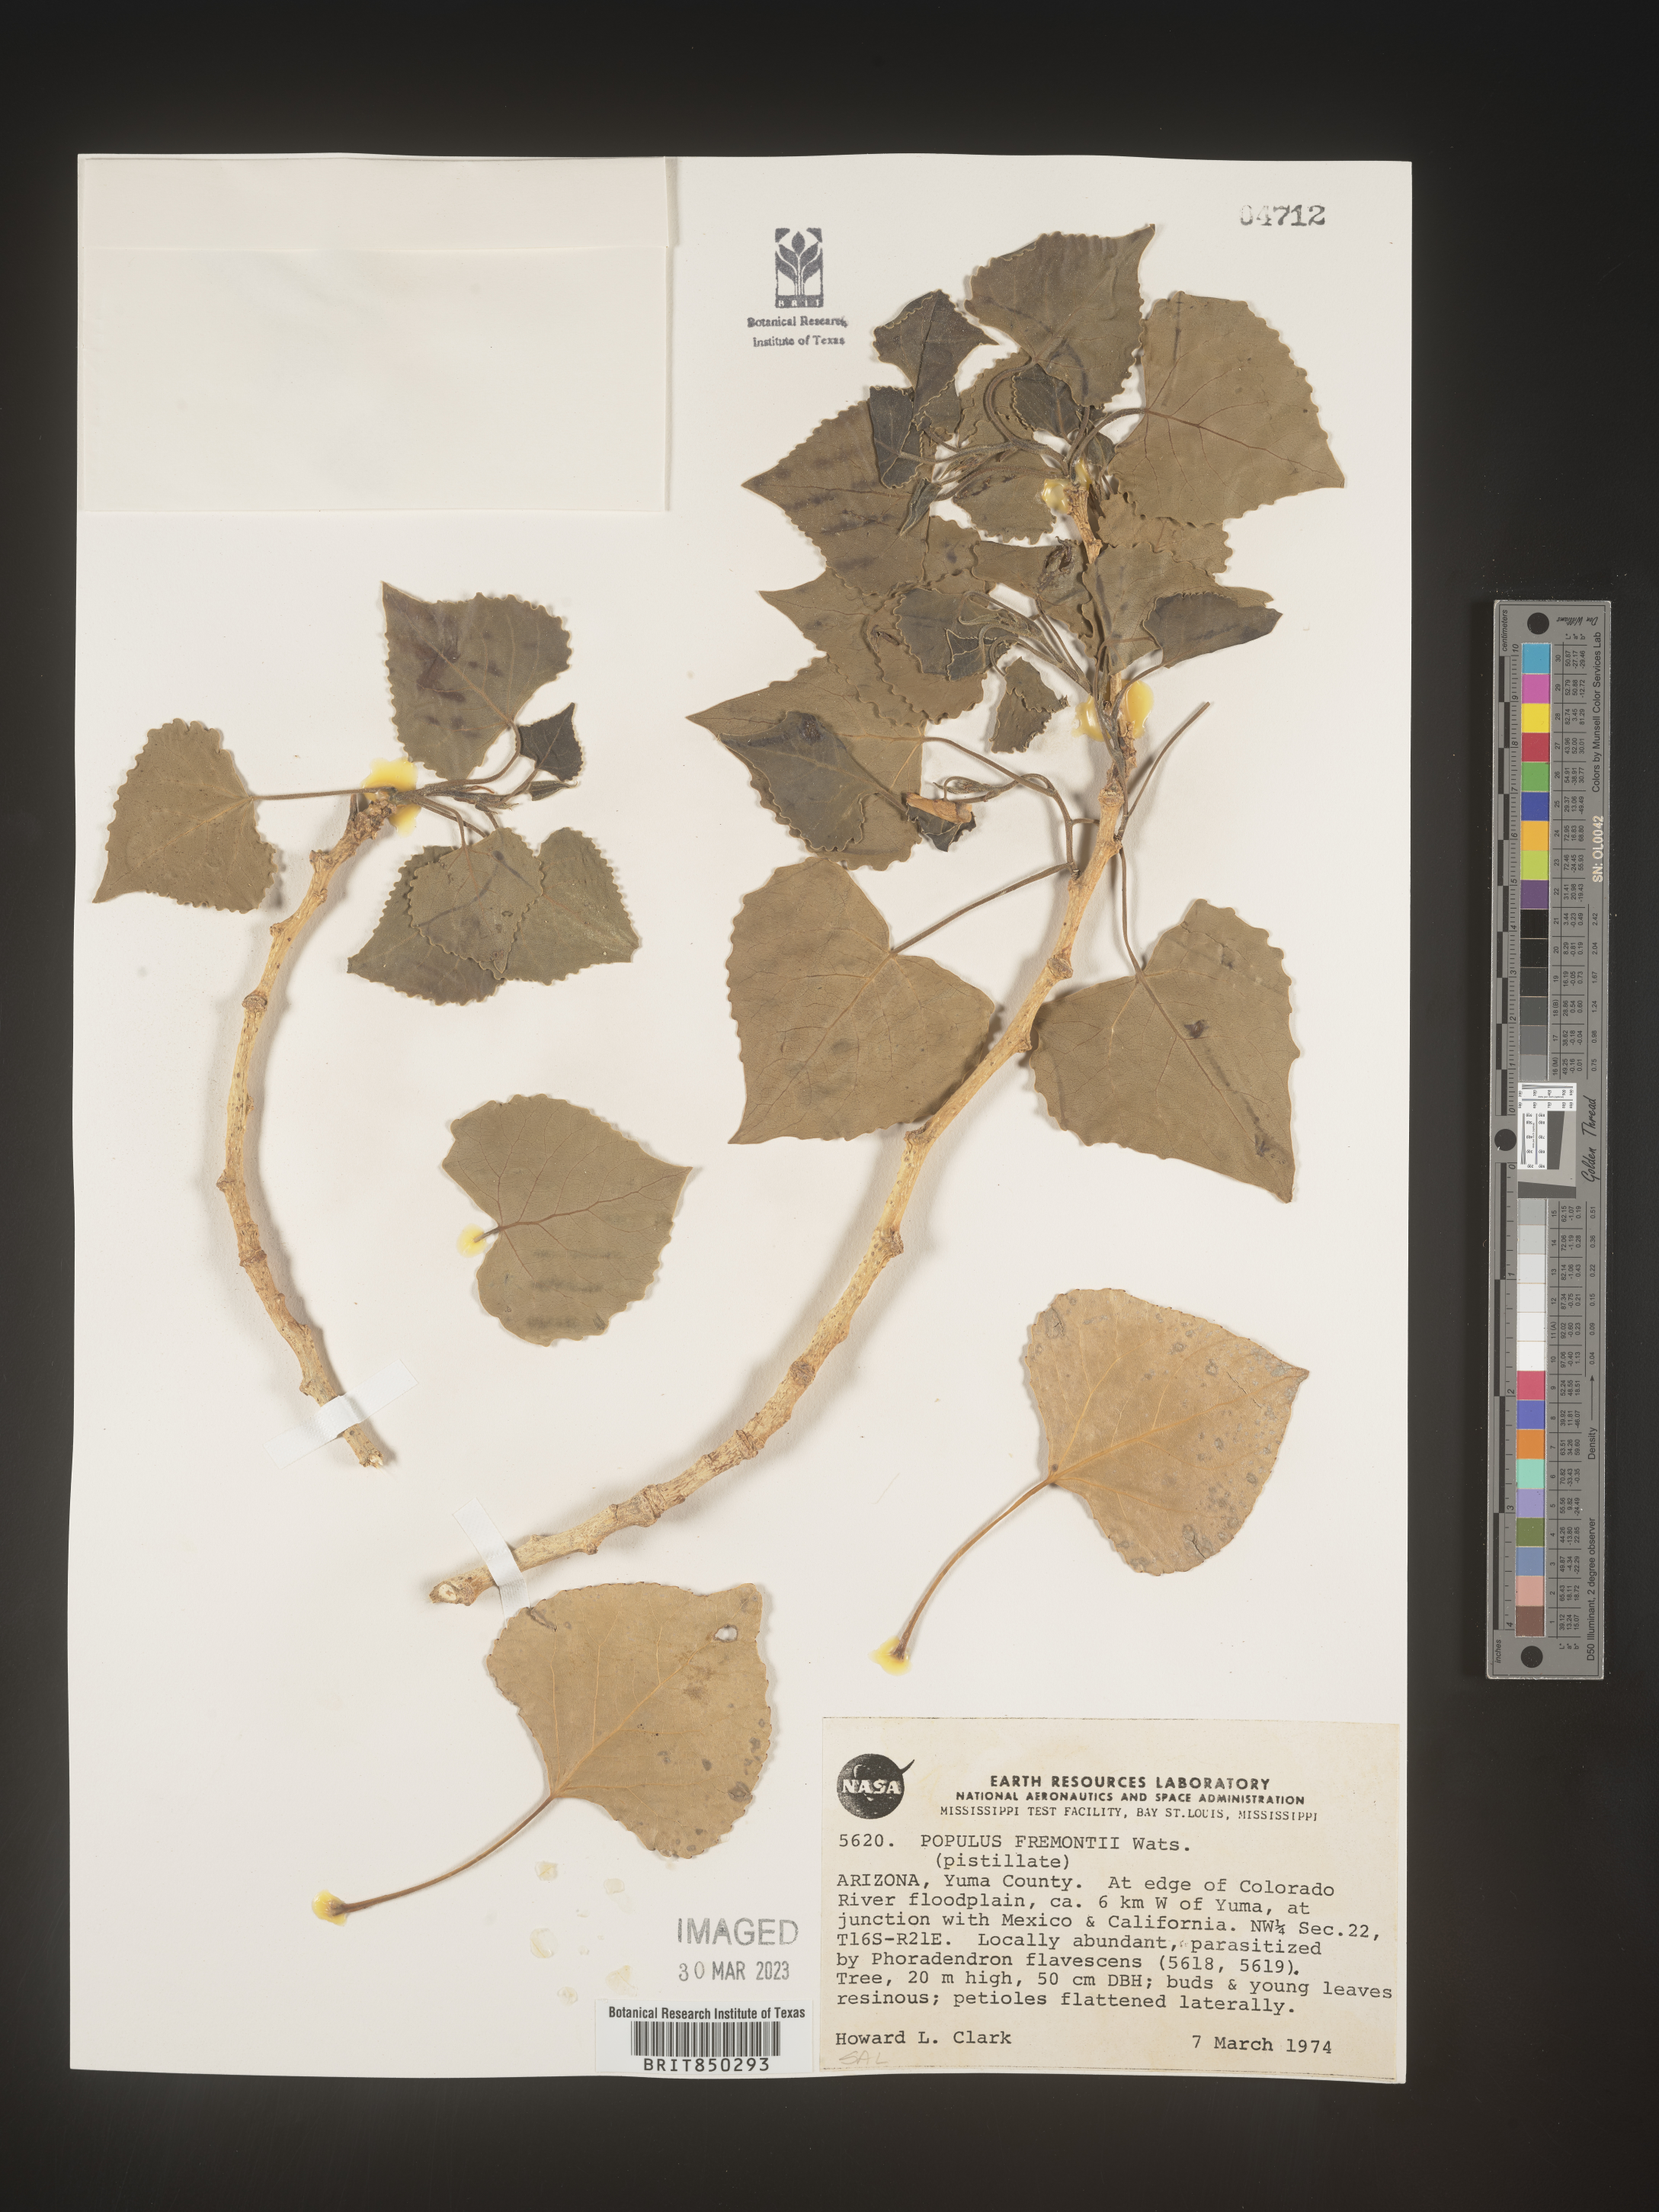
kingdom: Plantae
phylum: Tracheophyta
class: Magnoliopsida
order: Malpighiales
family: Salicaceae
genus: Populus
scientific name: Populus fremontii
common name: Fremont's cottonwood
